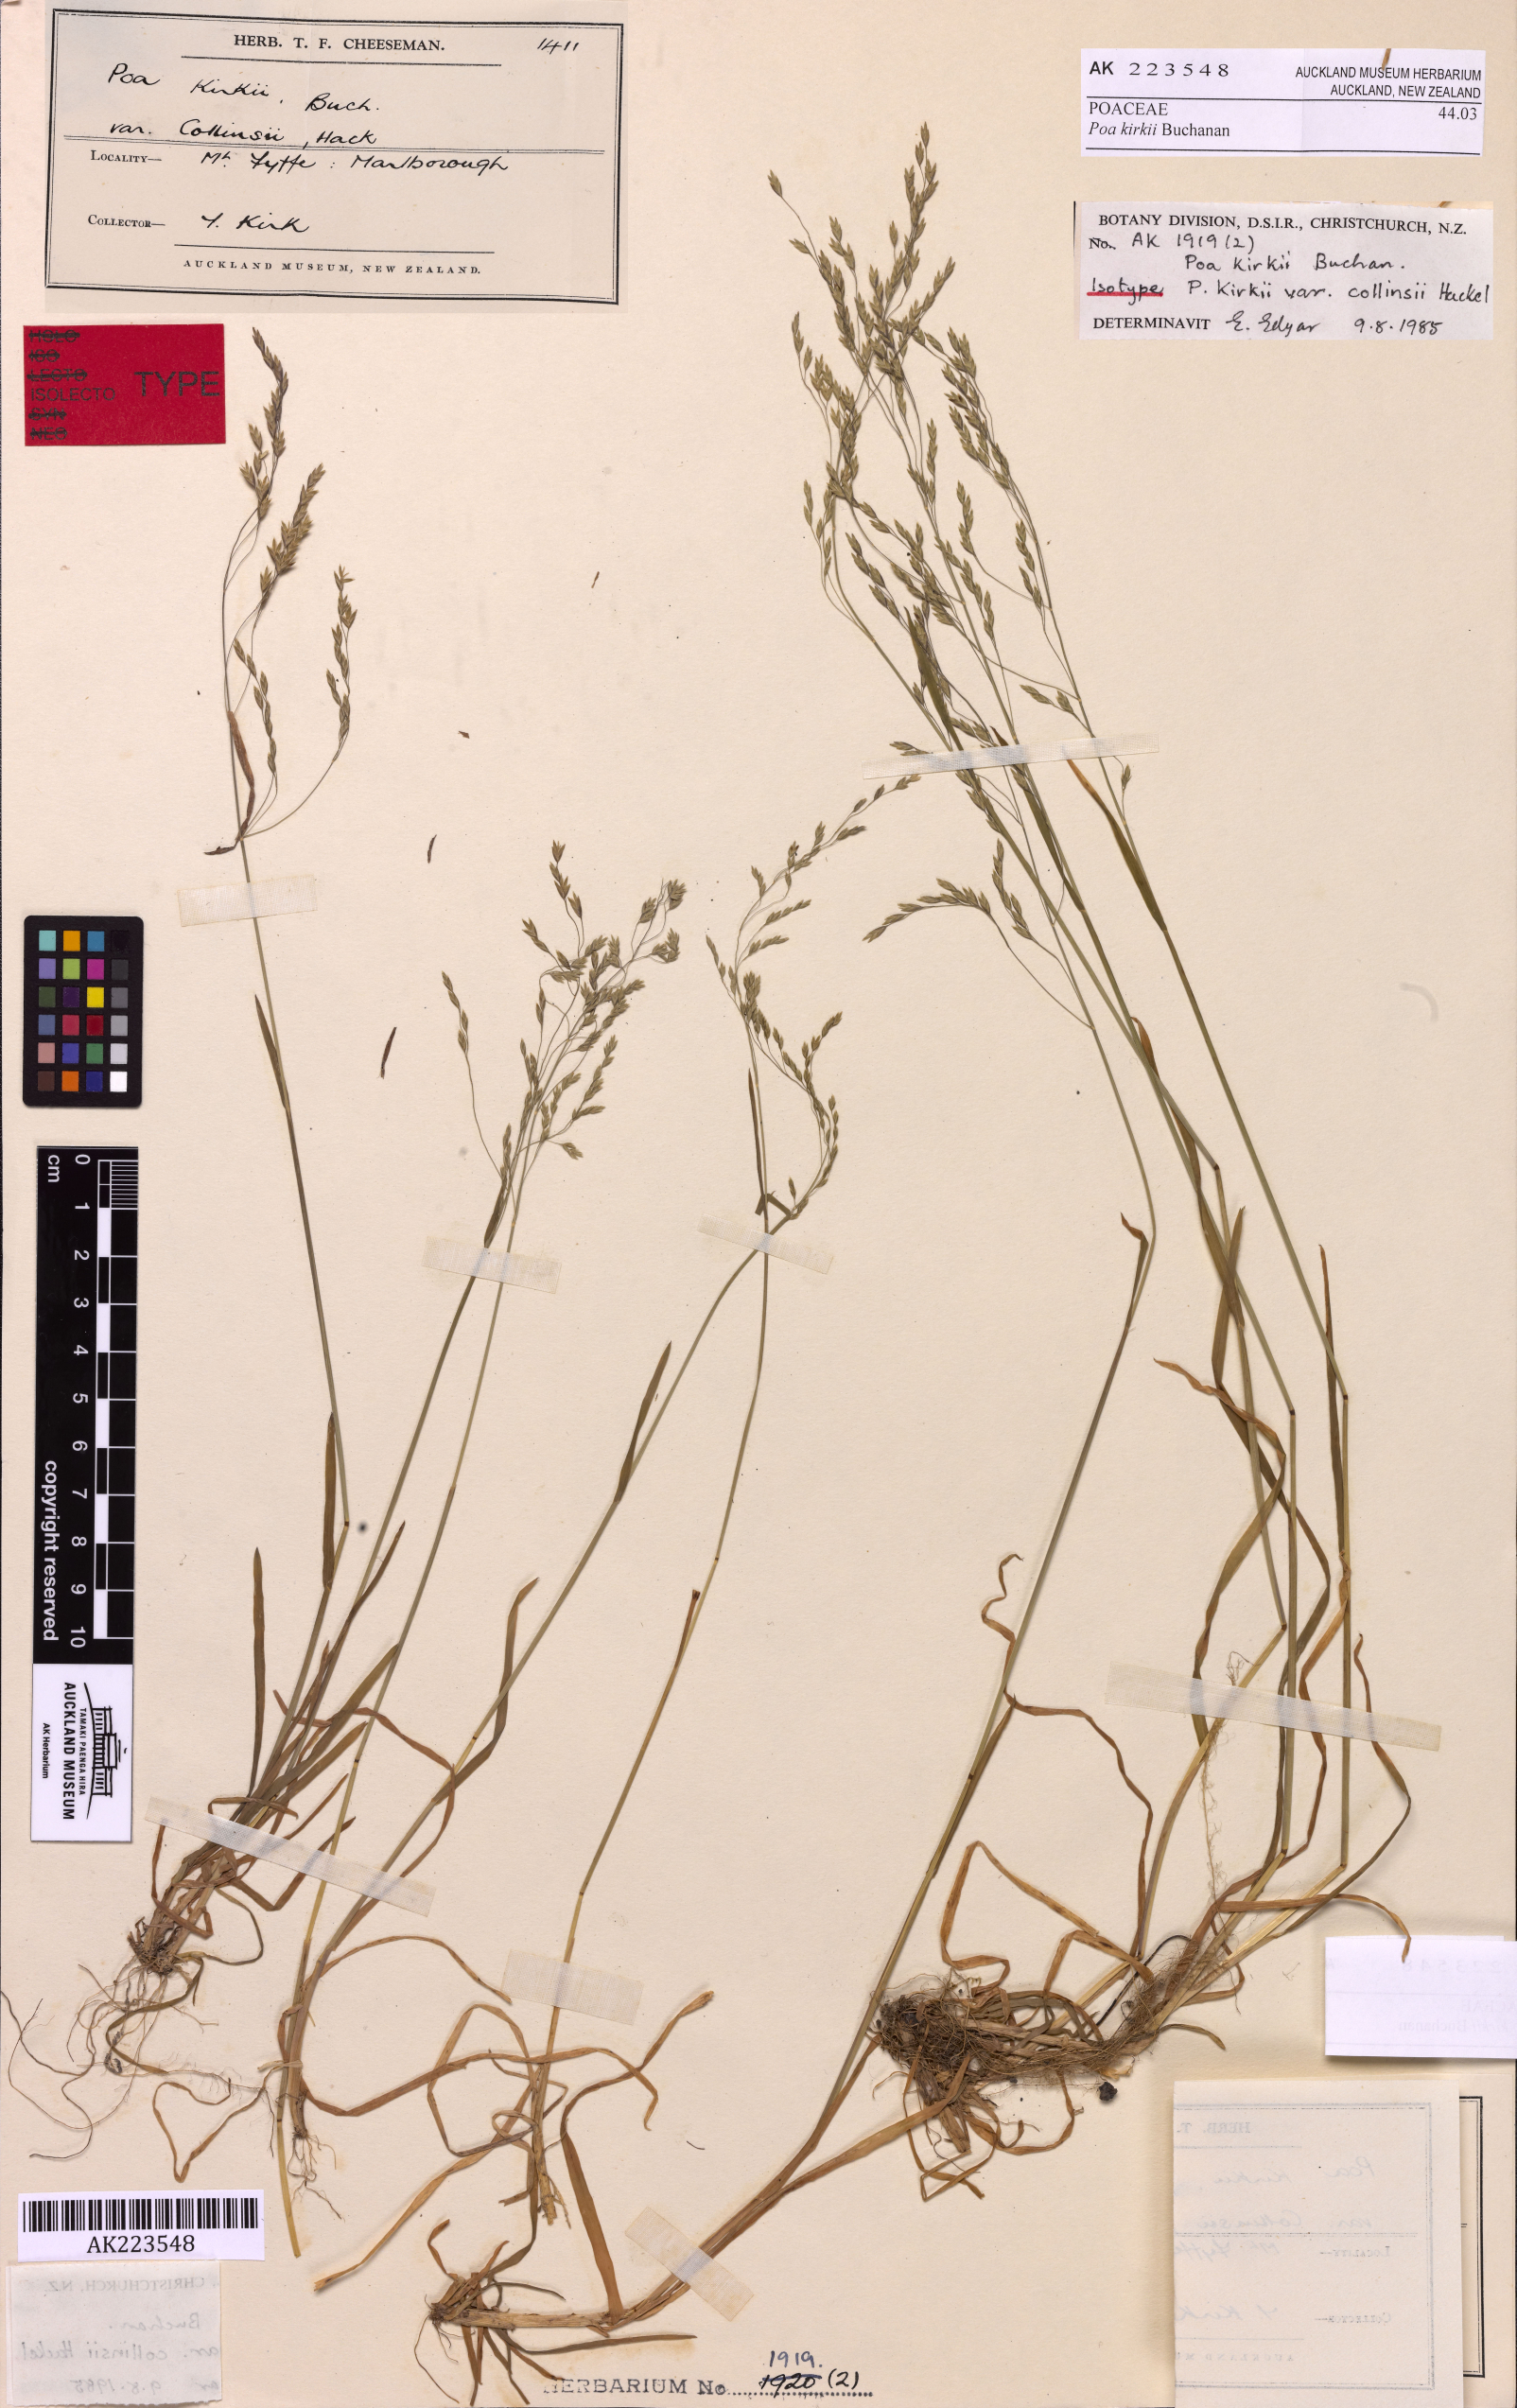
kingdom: Plantae
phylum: Tracheophyta
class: Liliopsida
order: Poales
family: Poaceae
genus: Poa
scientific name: Poa kirkii
